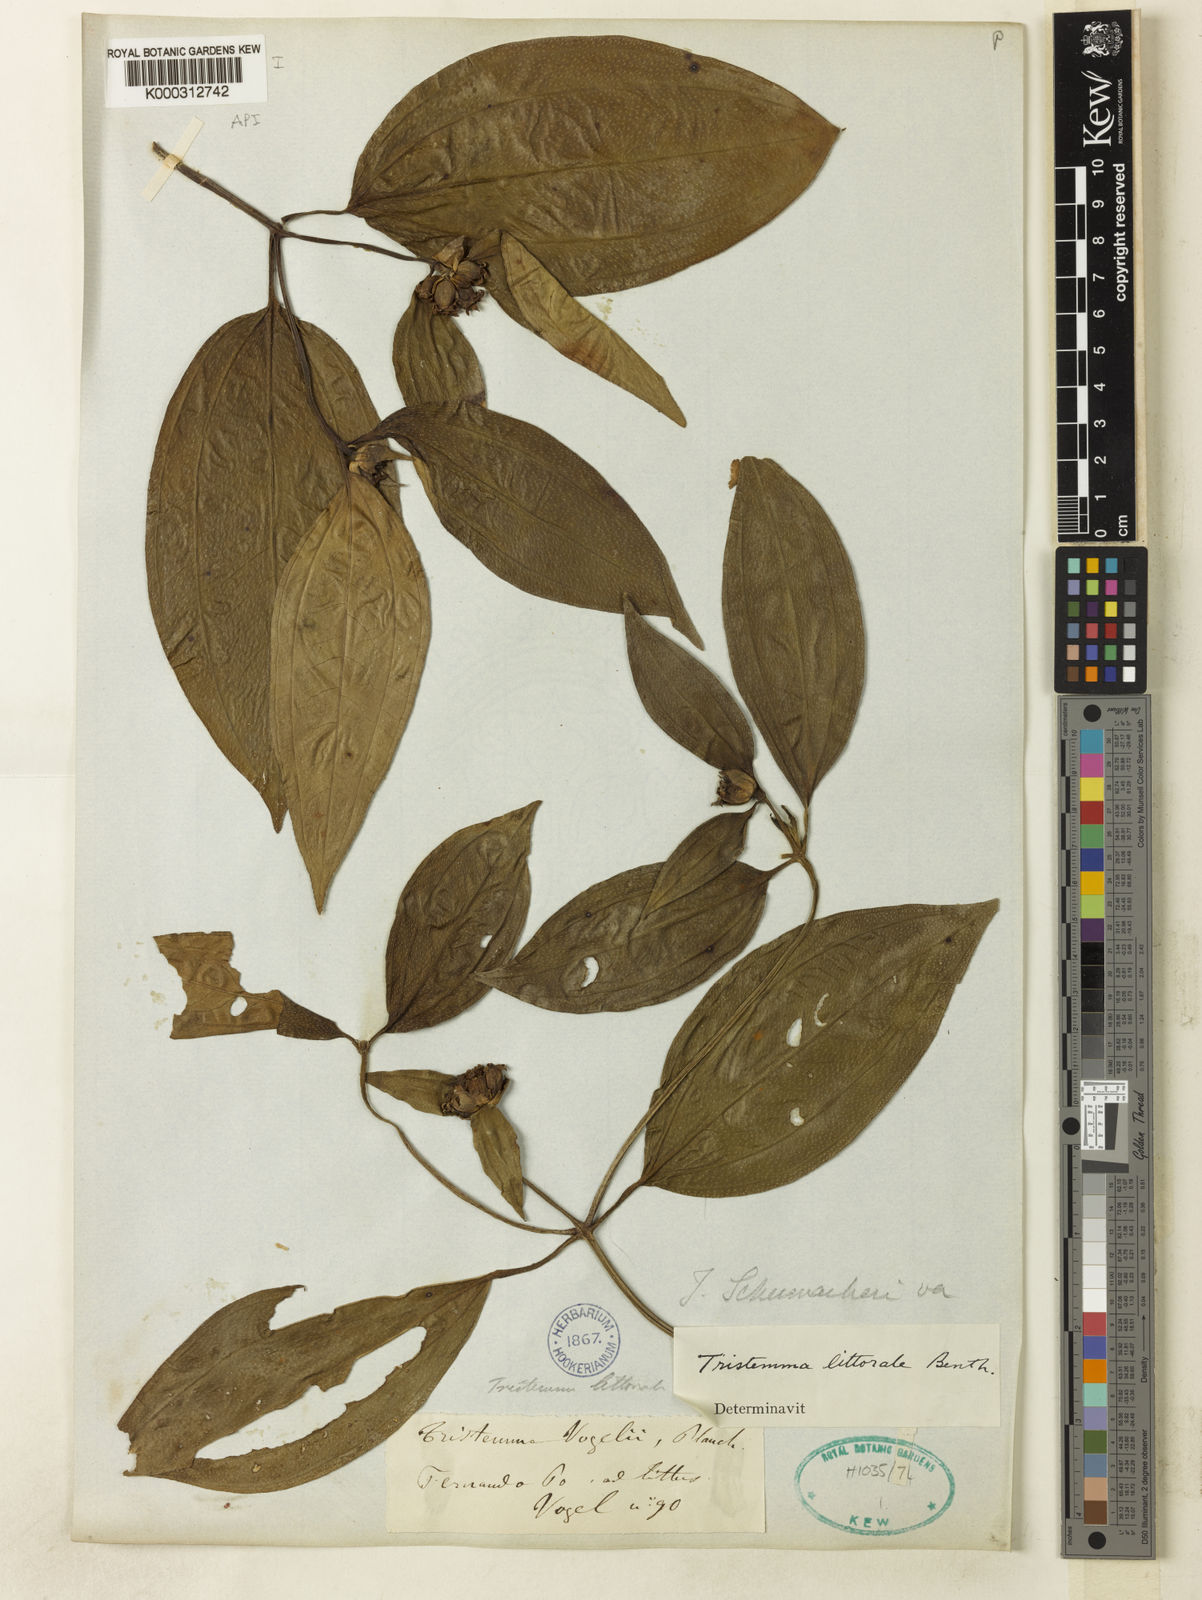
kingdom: Plantae
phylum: Tracheophyta
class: Magnoliopsida
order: Myrtales
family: Melastomataceae
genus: Tristemma
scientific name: Tristemma littorale
